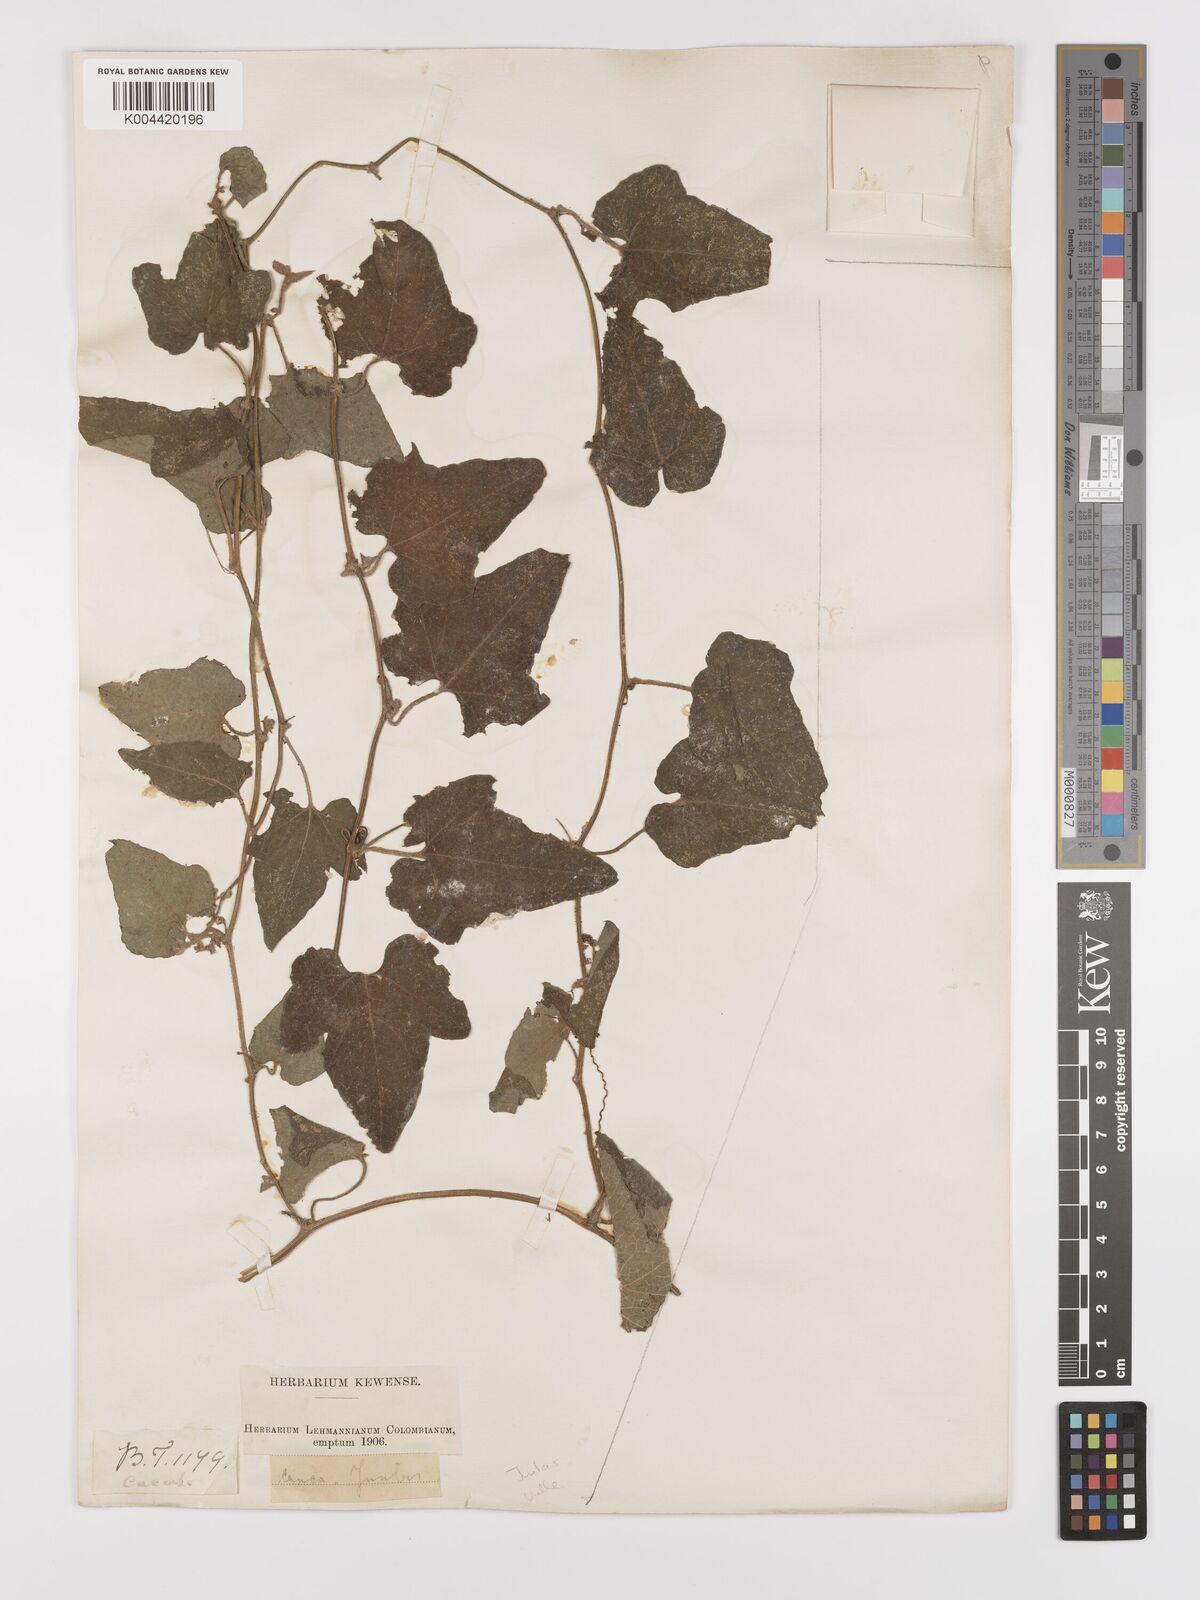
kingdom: Plantae
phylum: Tracheophyta
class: Magnoliopsida
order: Cucurbitales
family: Cucurbitaceae
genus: Cayaponia
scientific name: Cayaponia triangularis
